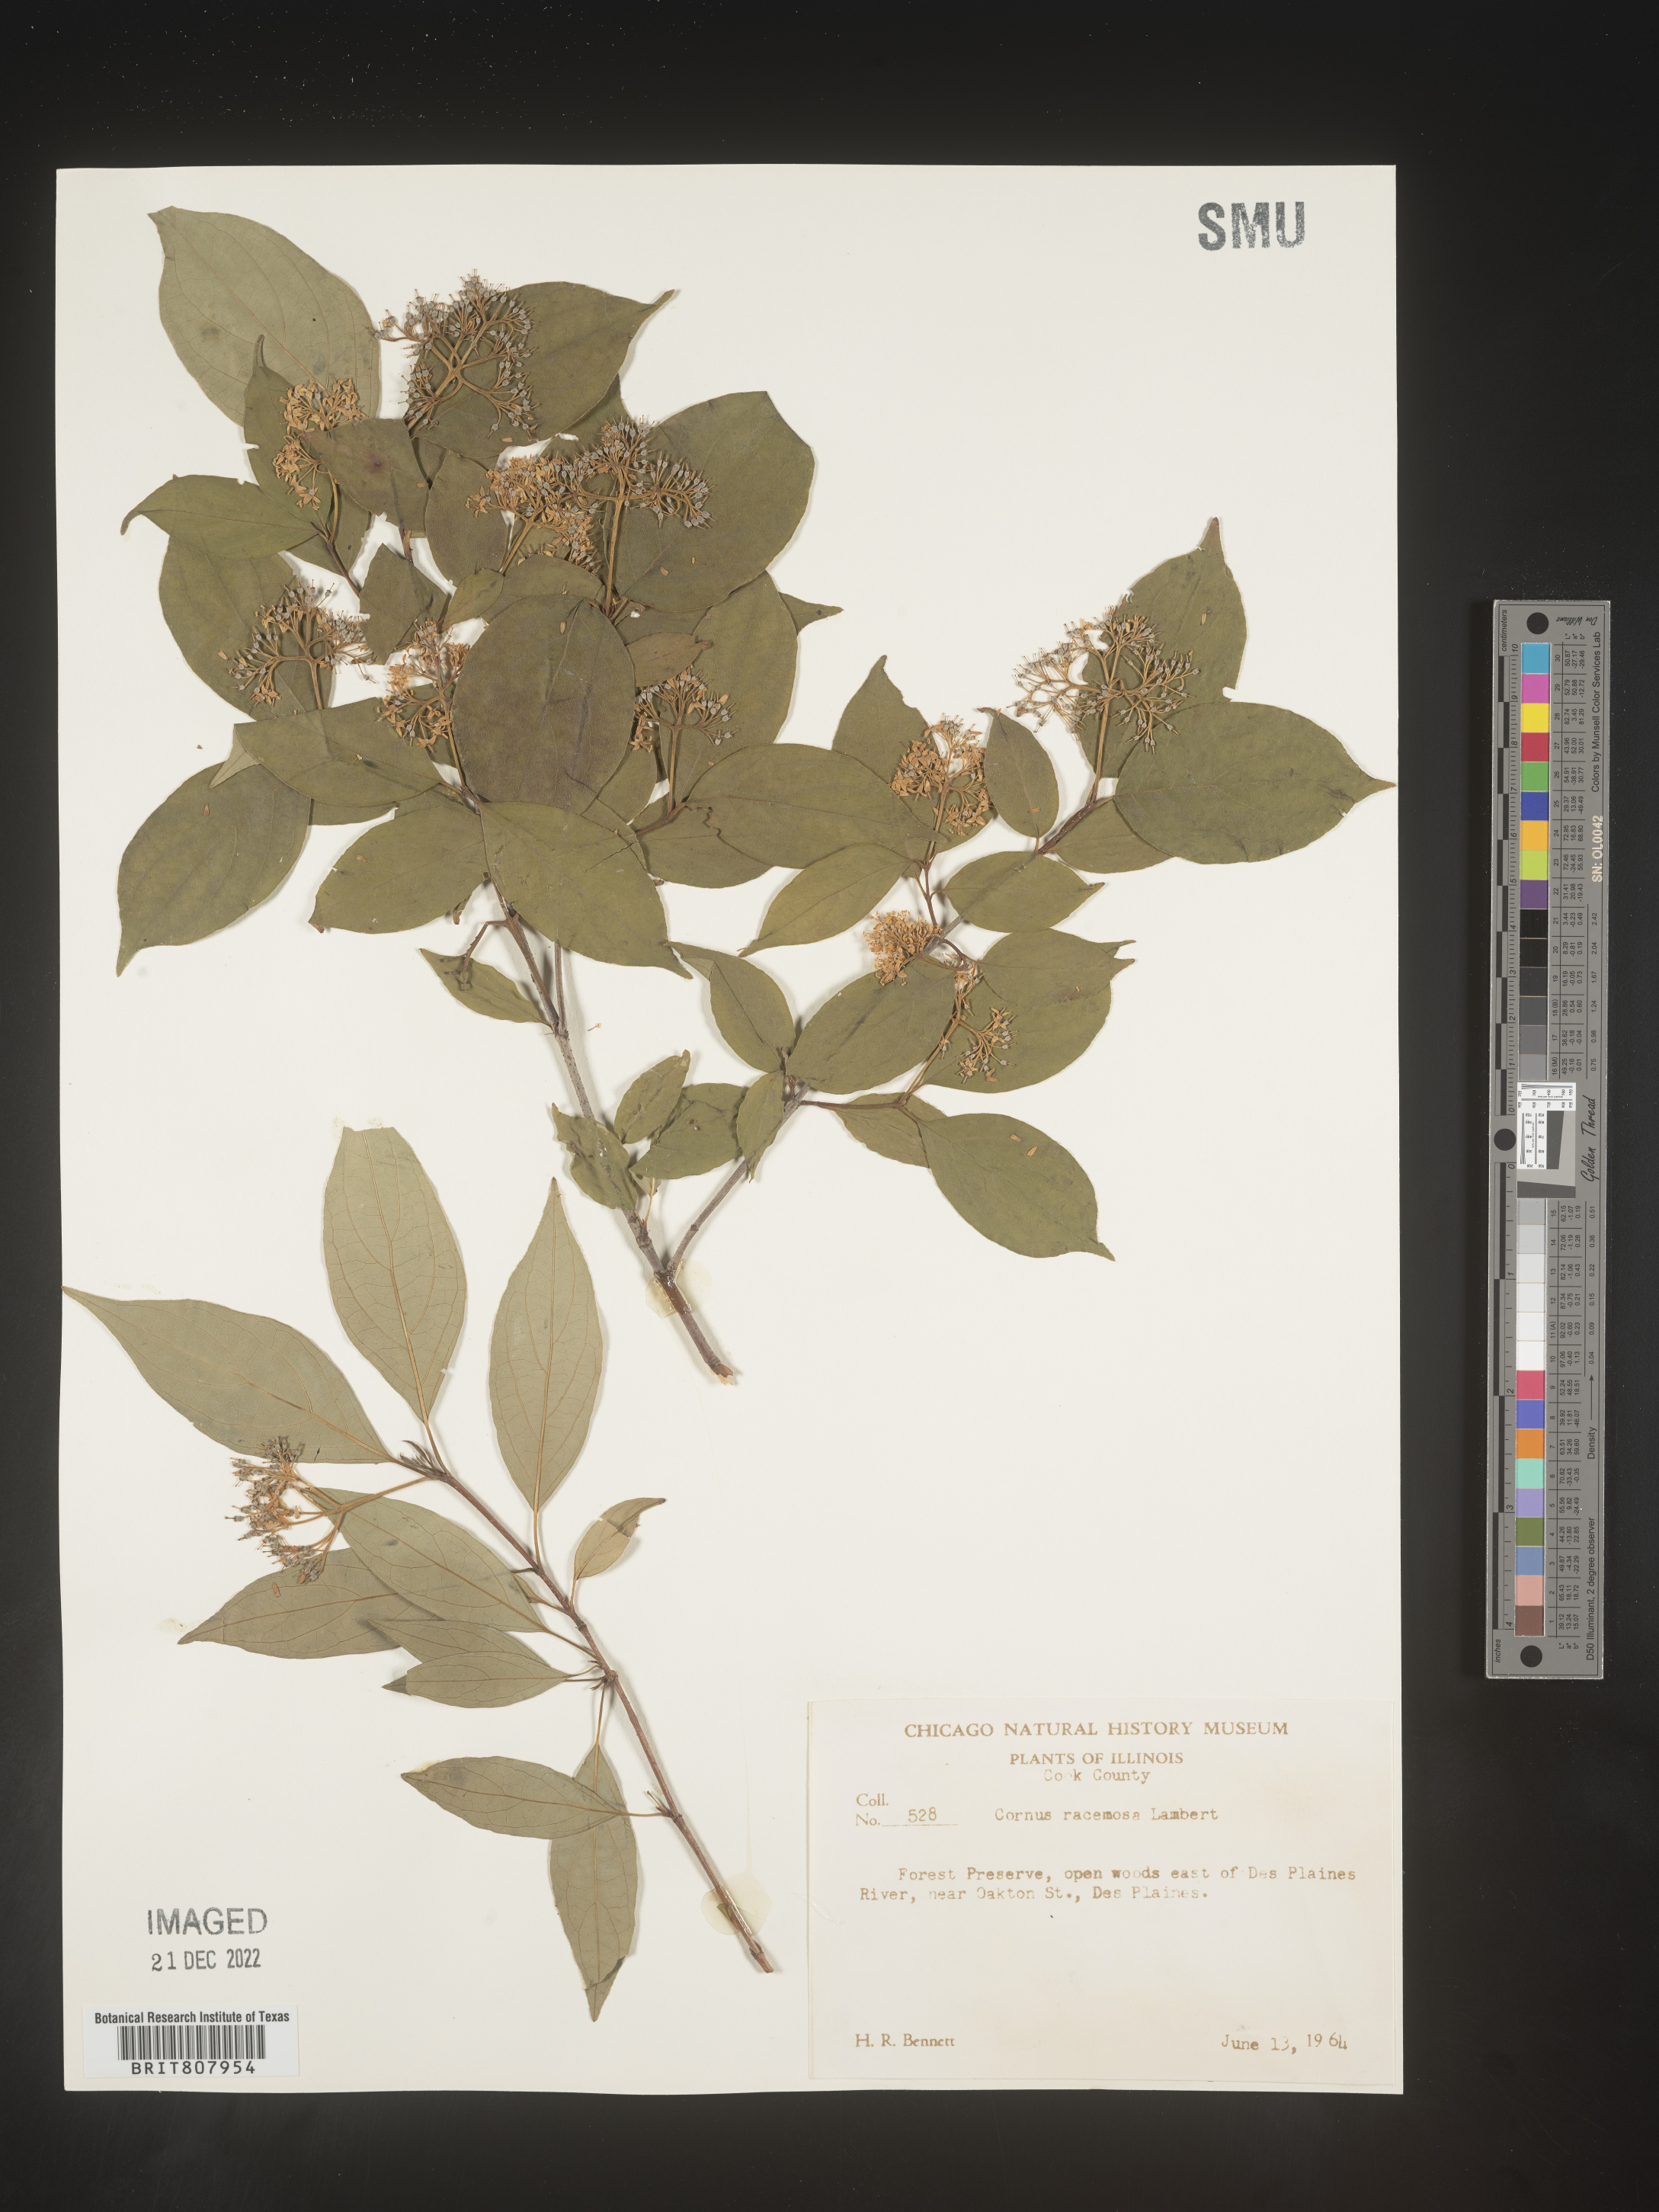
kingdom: Plantae
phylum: Tracheophyta
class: Magnoliopsida
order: Cornales
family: Cornaceae
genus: Cornus
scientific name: Cornus racemosa
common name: Panicled dogwood
